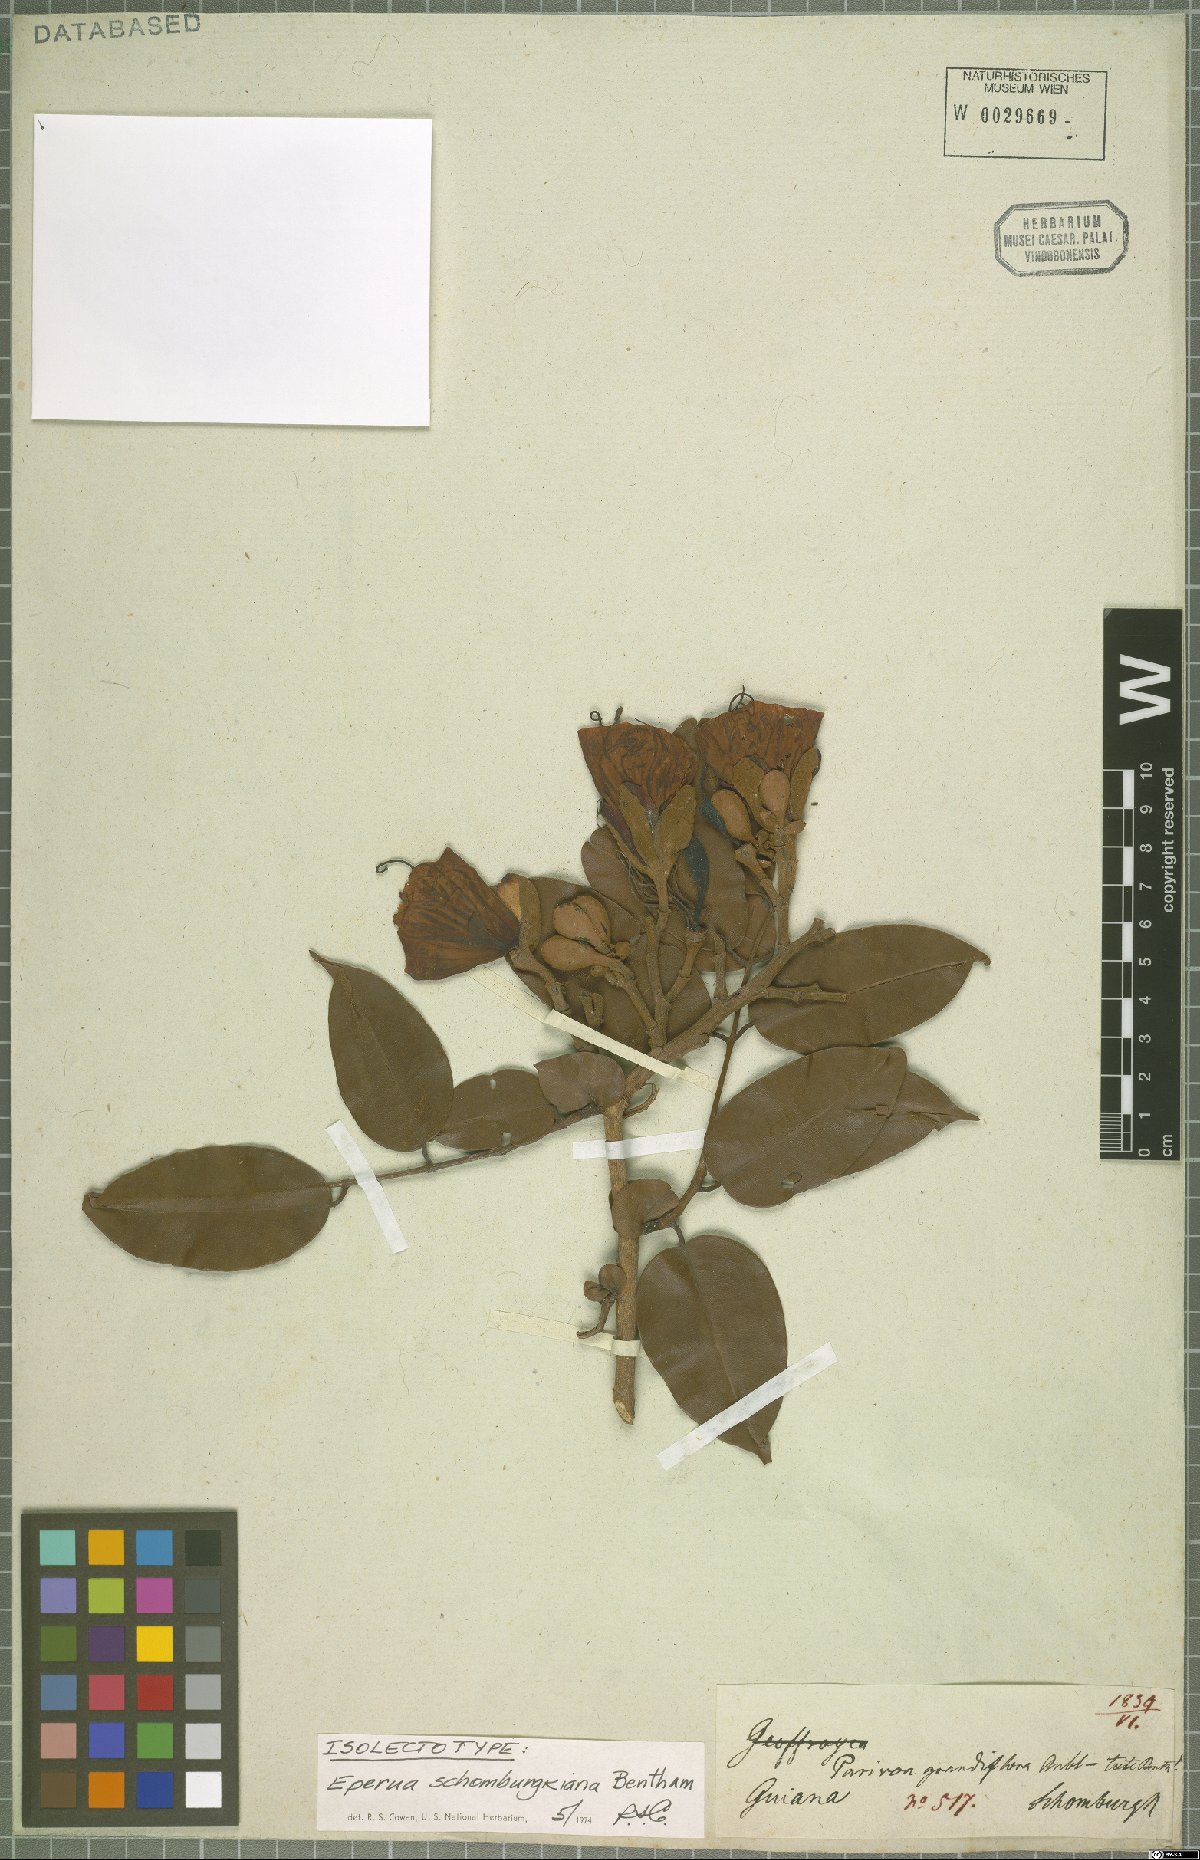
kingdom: Plantae
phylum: Tracheophyta
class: Magnoliopsida
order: Fabales
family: Fabaceae
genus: Eperua
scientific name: Eperua schomburgkiana
